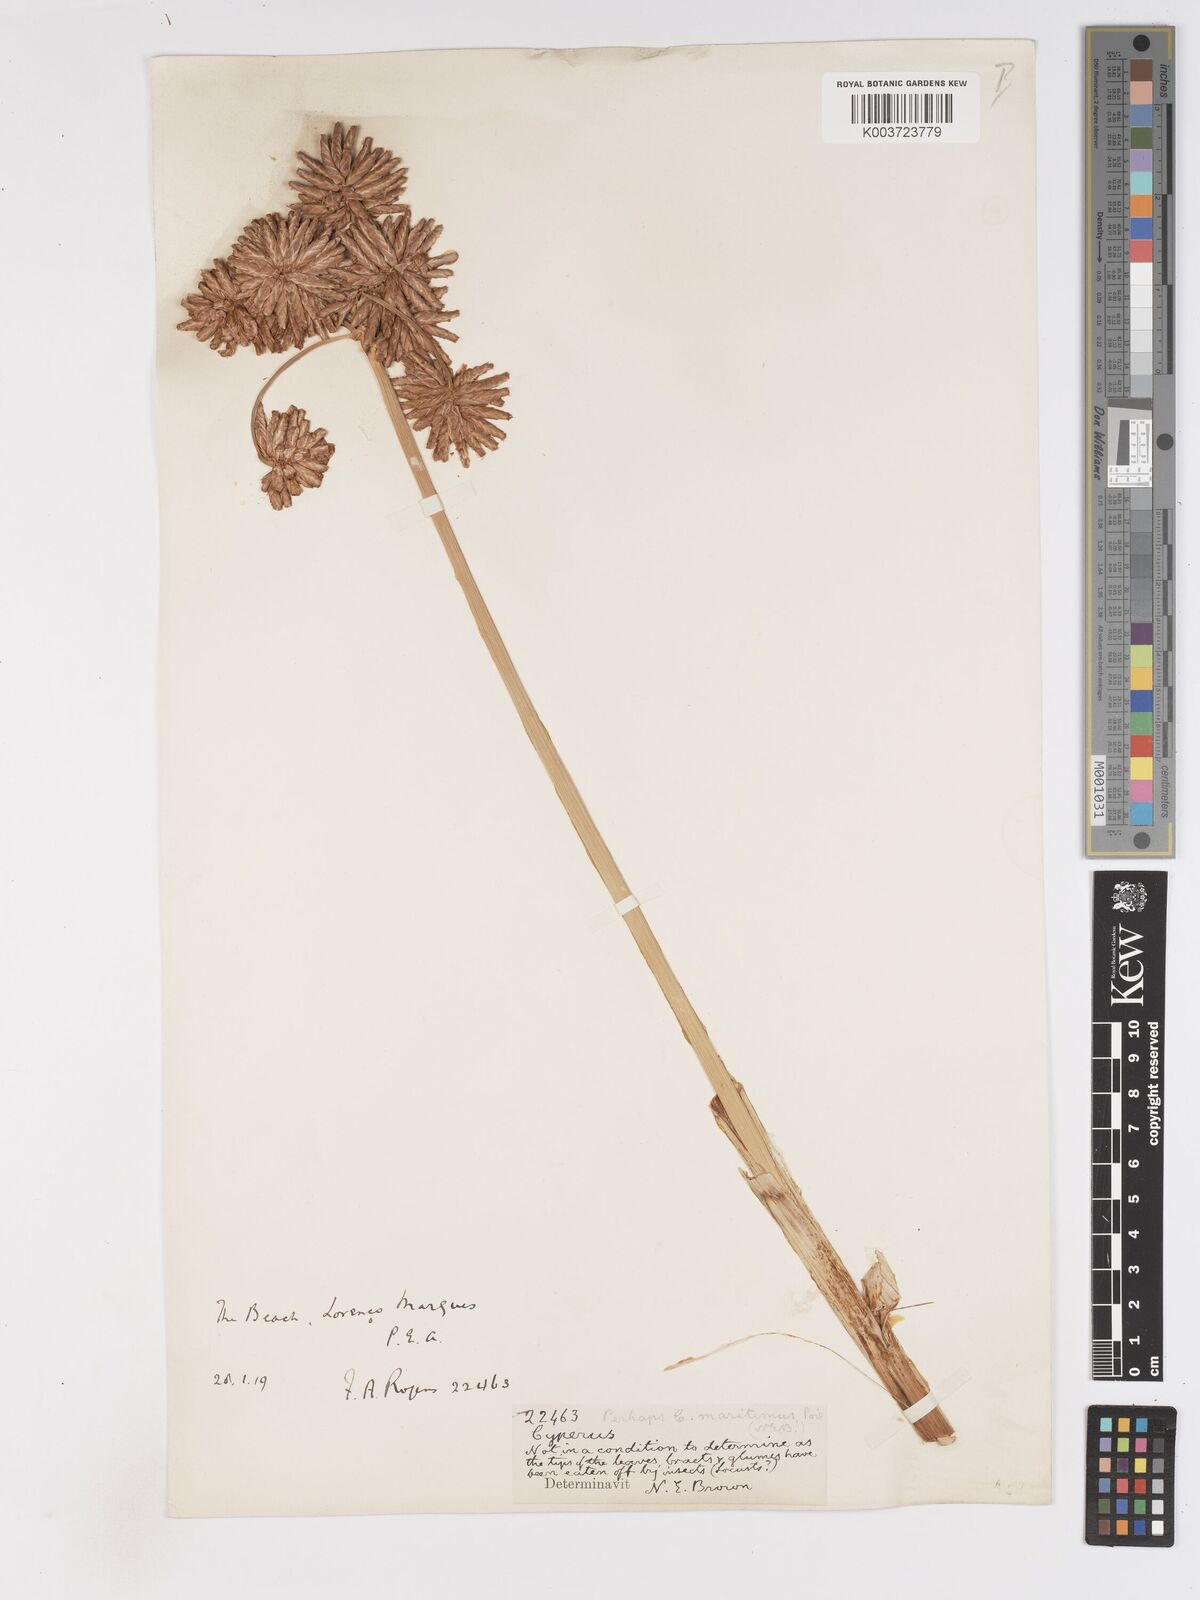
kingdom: Plantae
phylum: Tracheophyta
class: Liliopsida
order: Poales
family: Cyperaceae
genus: Cyperus
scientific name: Cyperus crassipes
